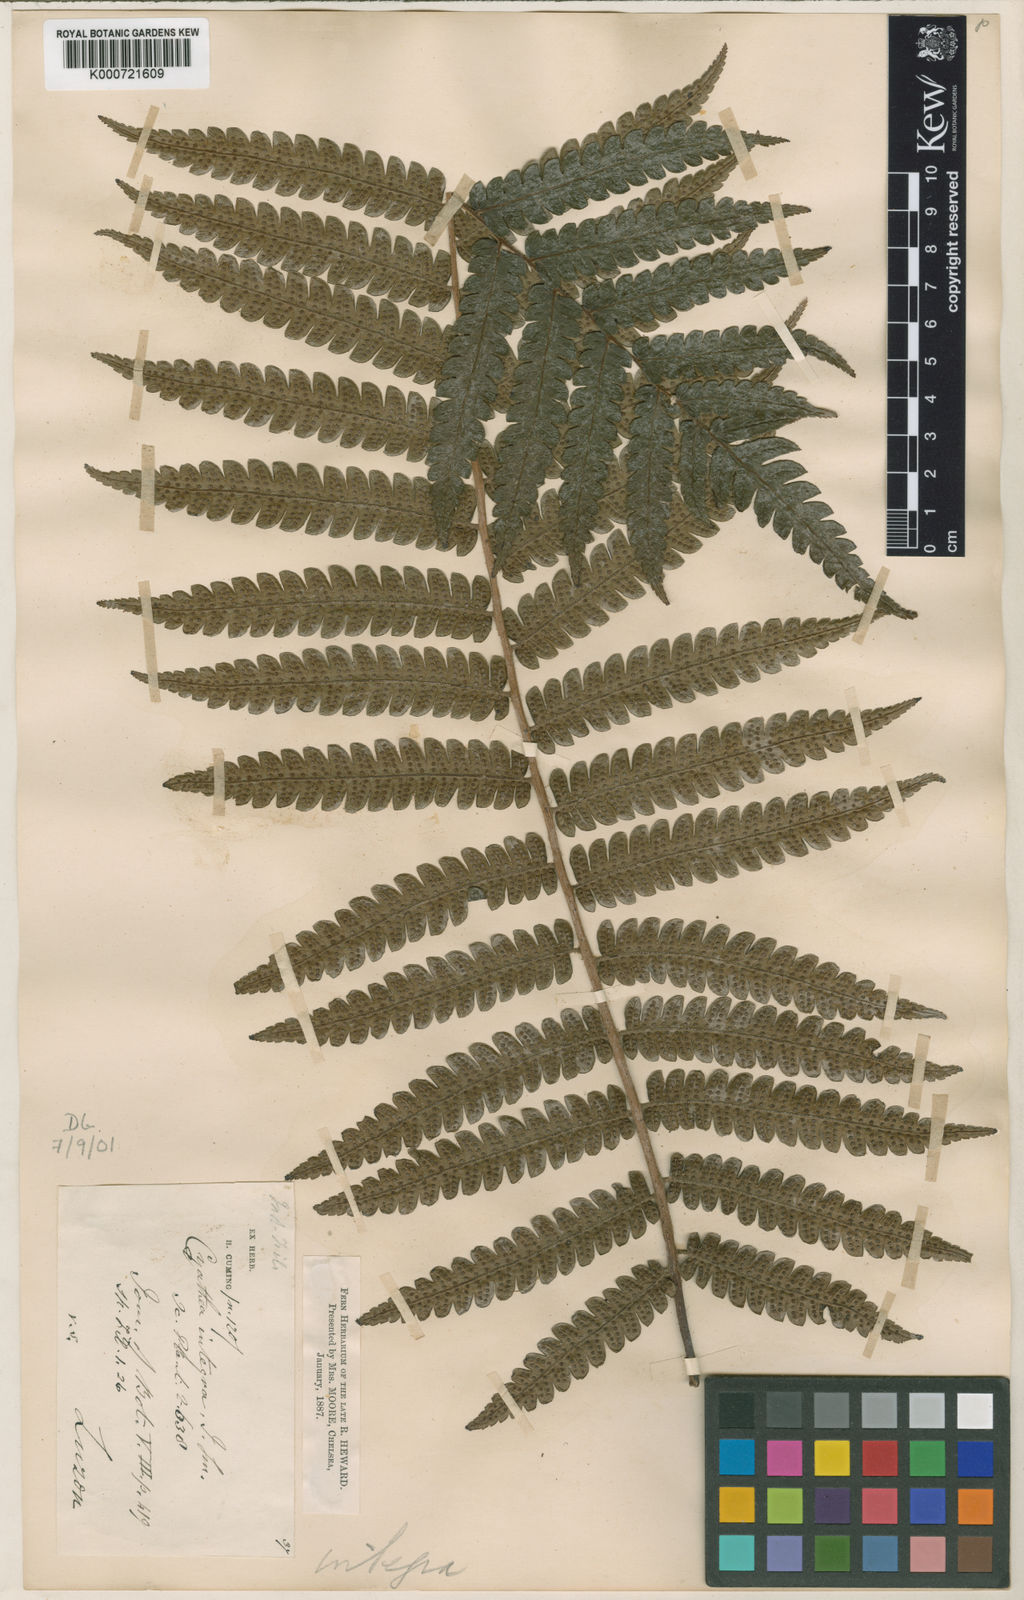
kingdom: Plantae
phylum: Tracheophyta
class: Polypodiopsida
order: Cyatheales
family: Cyatheaceae
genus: Sphaeropteris
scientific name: Sphaeropteris integra
